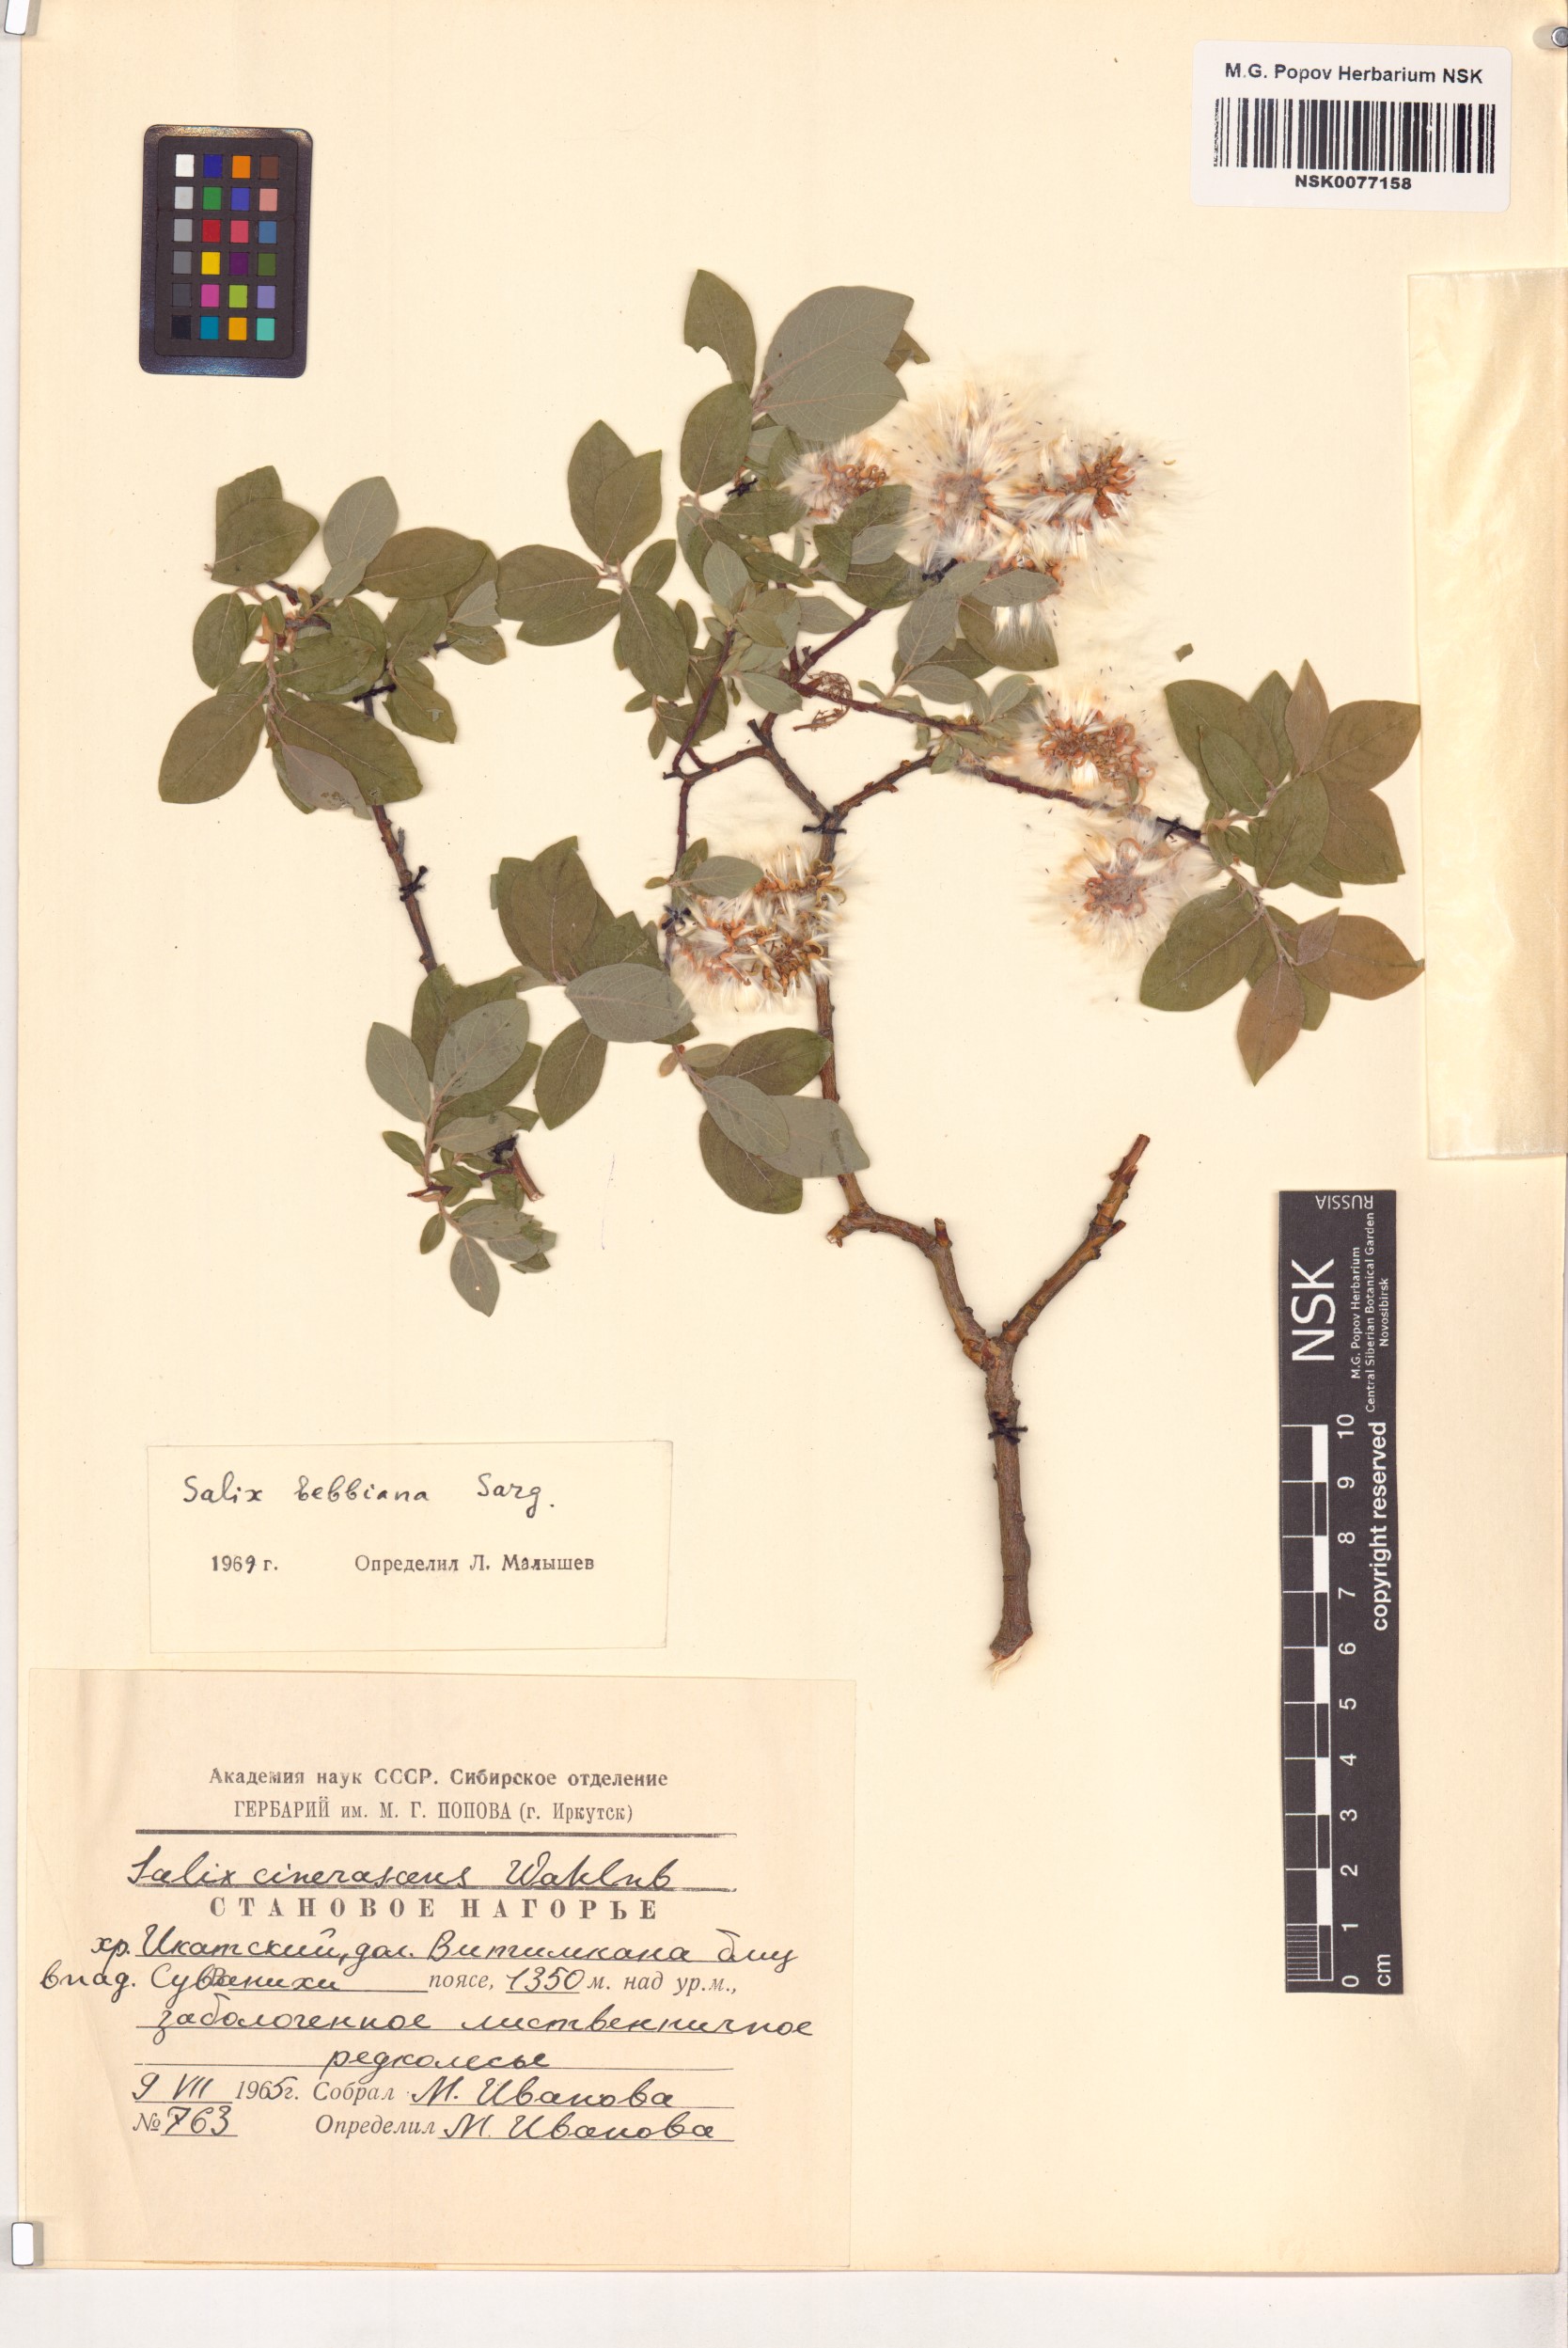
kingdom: Plantae
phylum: Tracheophyta
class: Magnoliopsida
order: Malpighiales
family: Salicaceae
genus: Salix
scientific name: Salix bebbiana
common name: Bebb's willow
